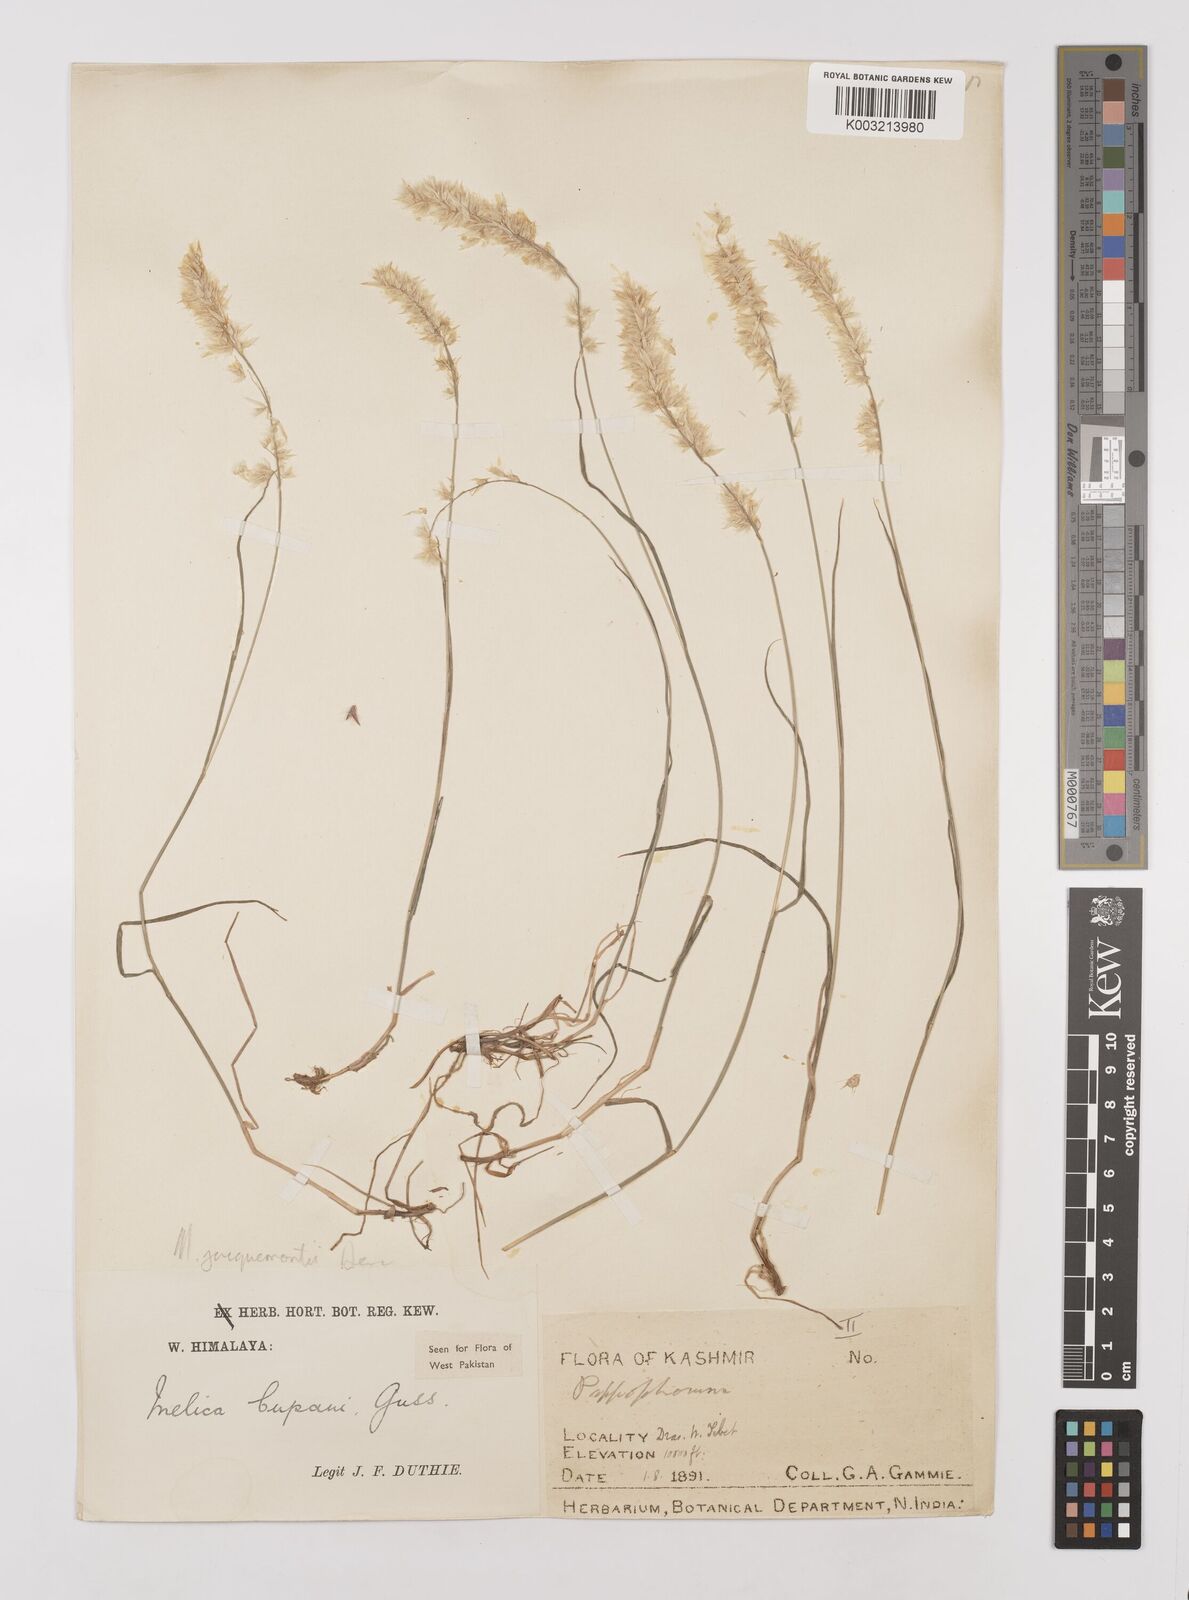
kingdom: Plantae
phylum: Tracheophyta
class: Liliopsida
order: Poales
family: Poaceae
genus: Melica
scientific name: Melica persica
